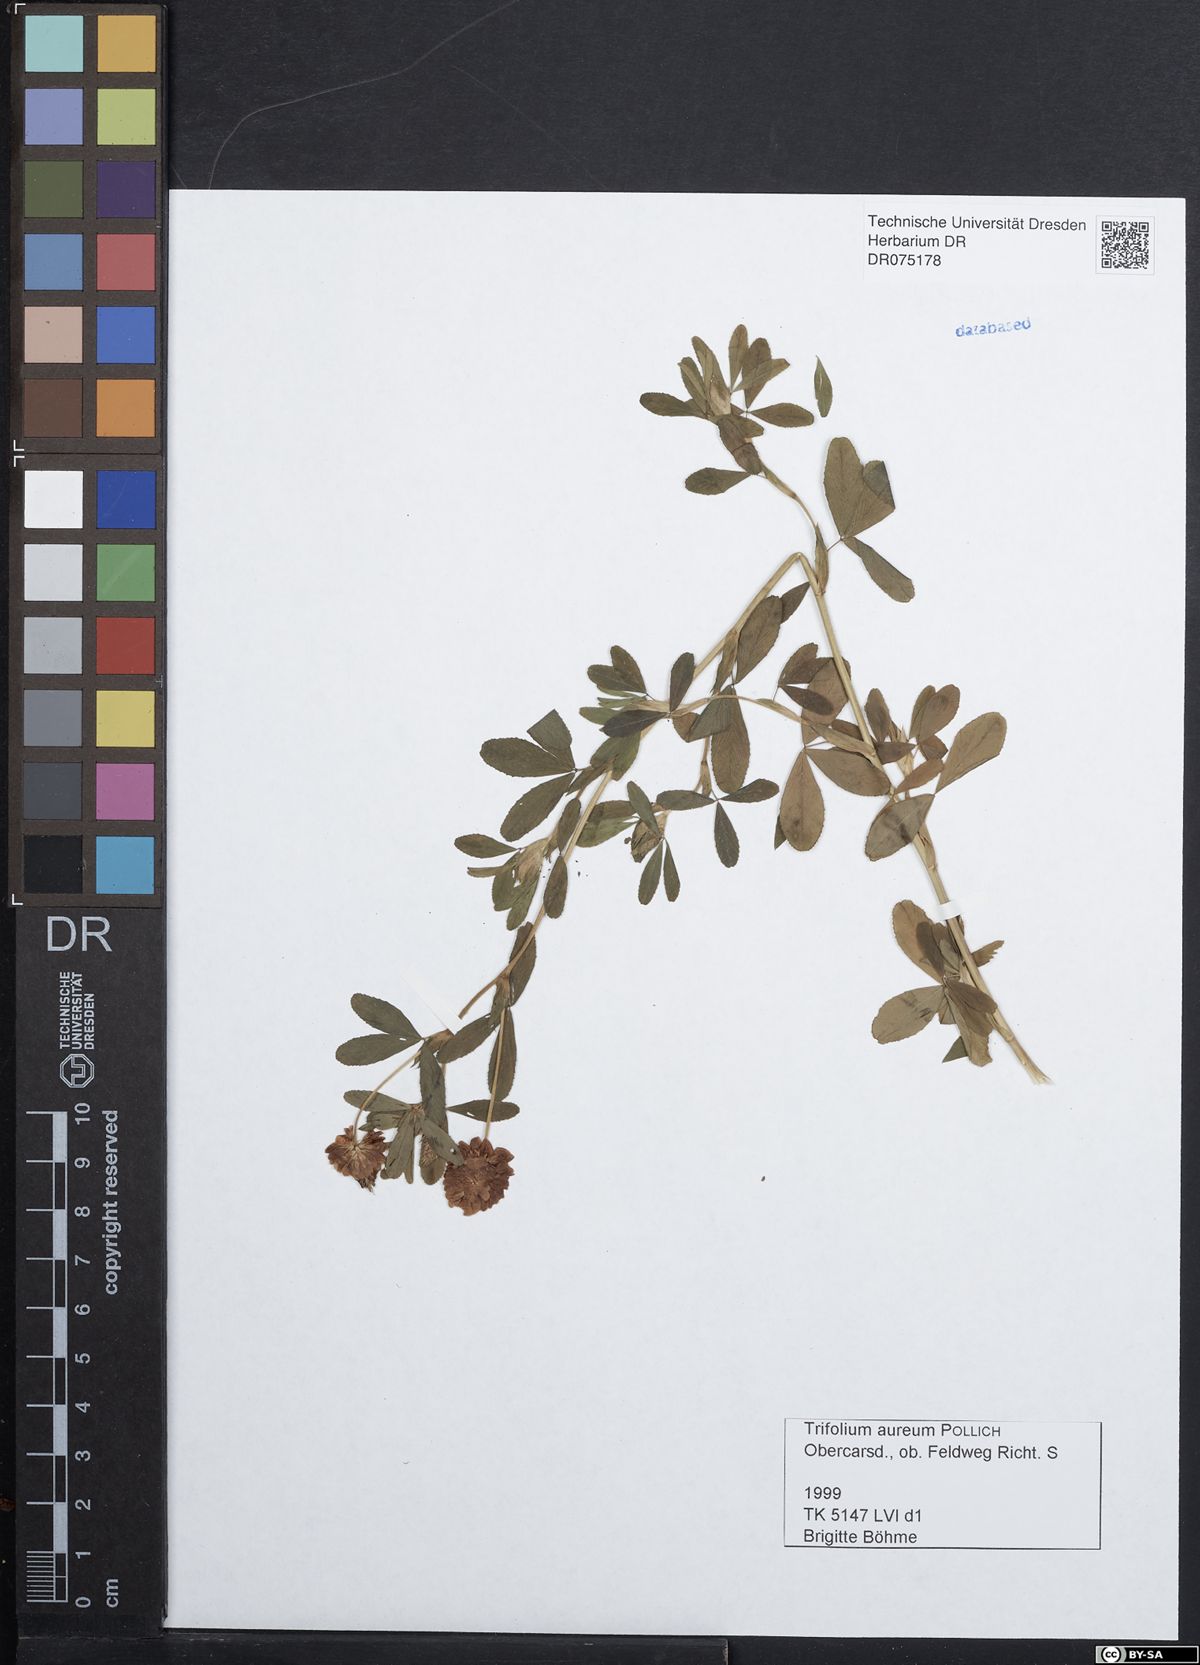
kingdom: Plantae
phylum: Tracheophyta
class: Magnoliopsida
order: Fabales
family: Fabaceae
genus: Trifolium
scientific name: Trifolium aureum
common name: Golden clover
